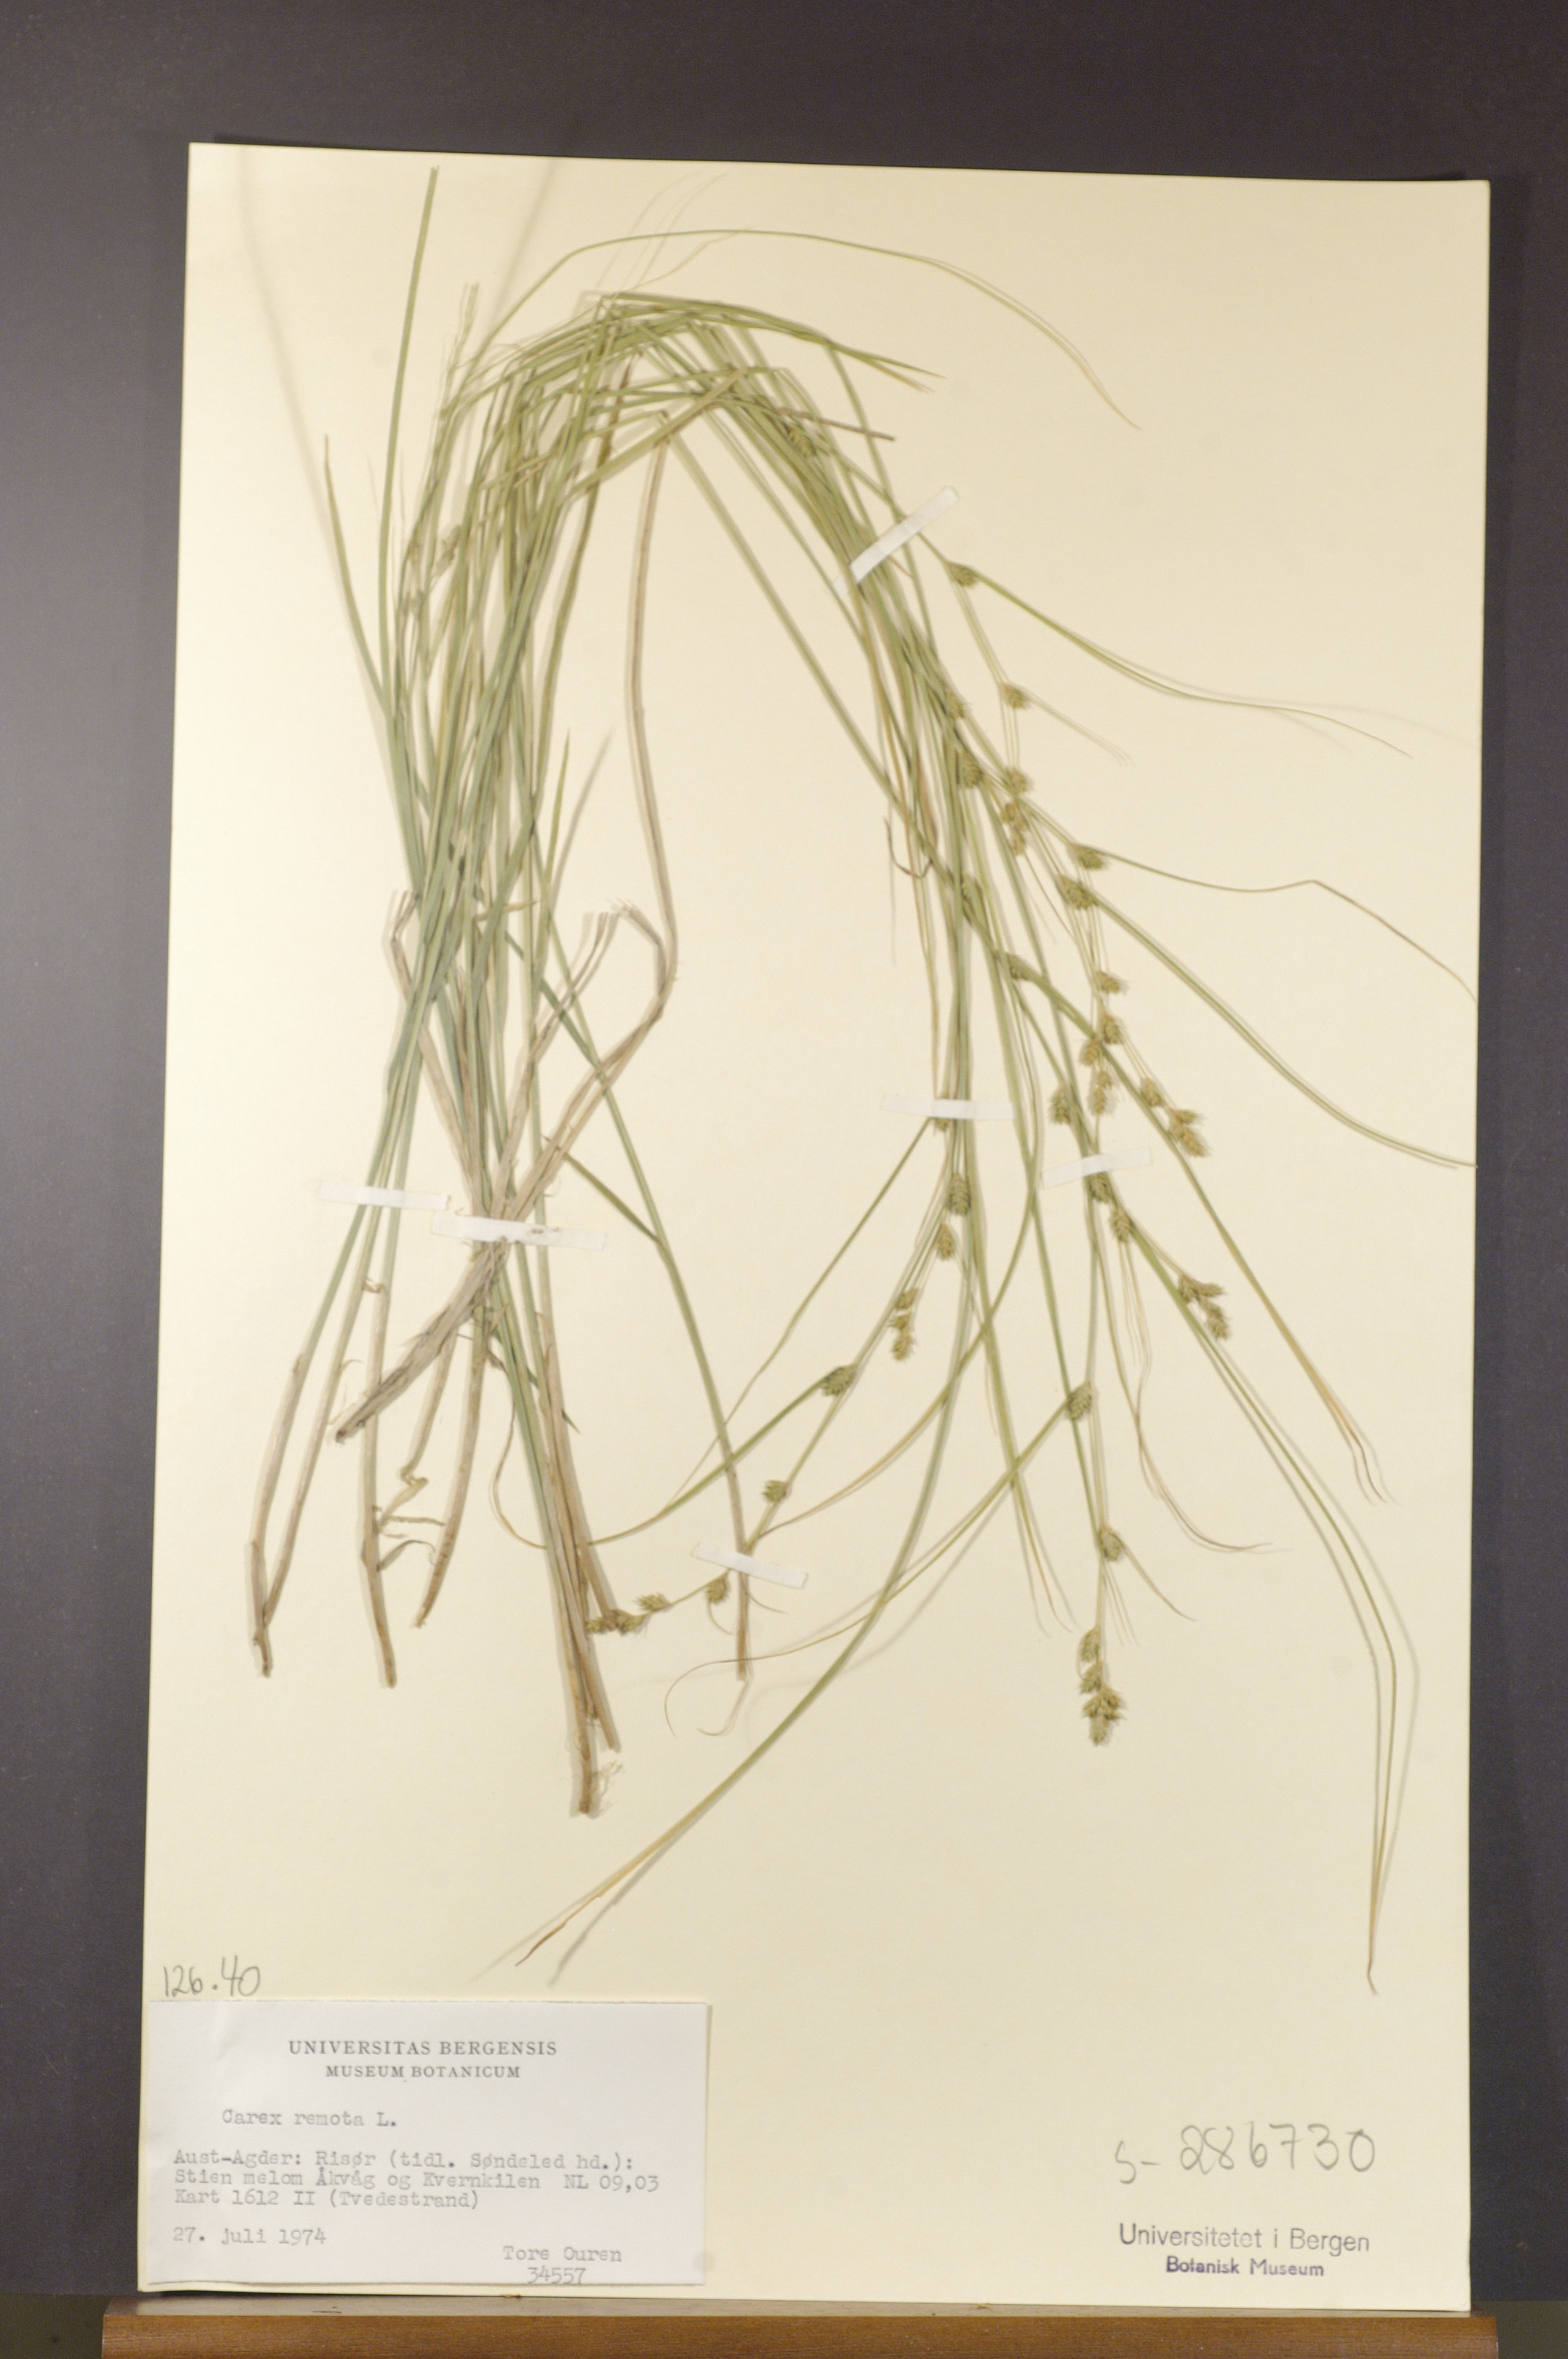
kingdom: Plantae
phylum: Tracheophyta
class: Liliopsida
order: Poales
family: Cyperaceae
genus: Carex
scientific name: Carex remota
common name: Remote sedge
